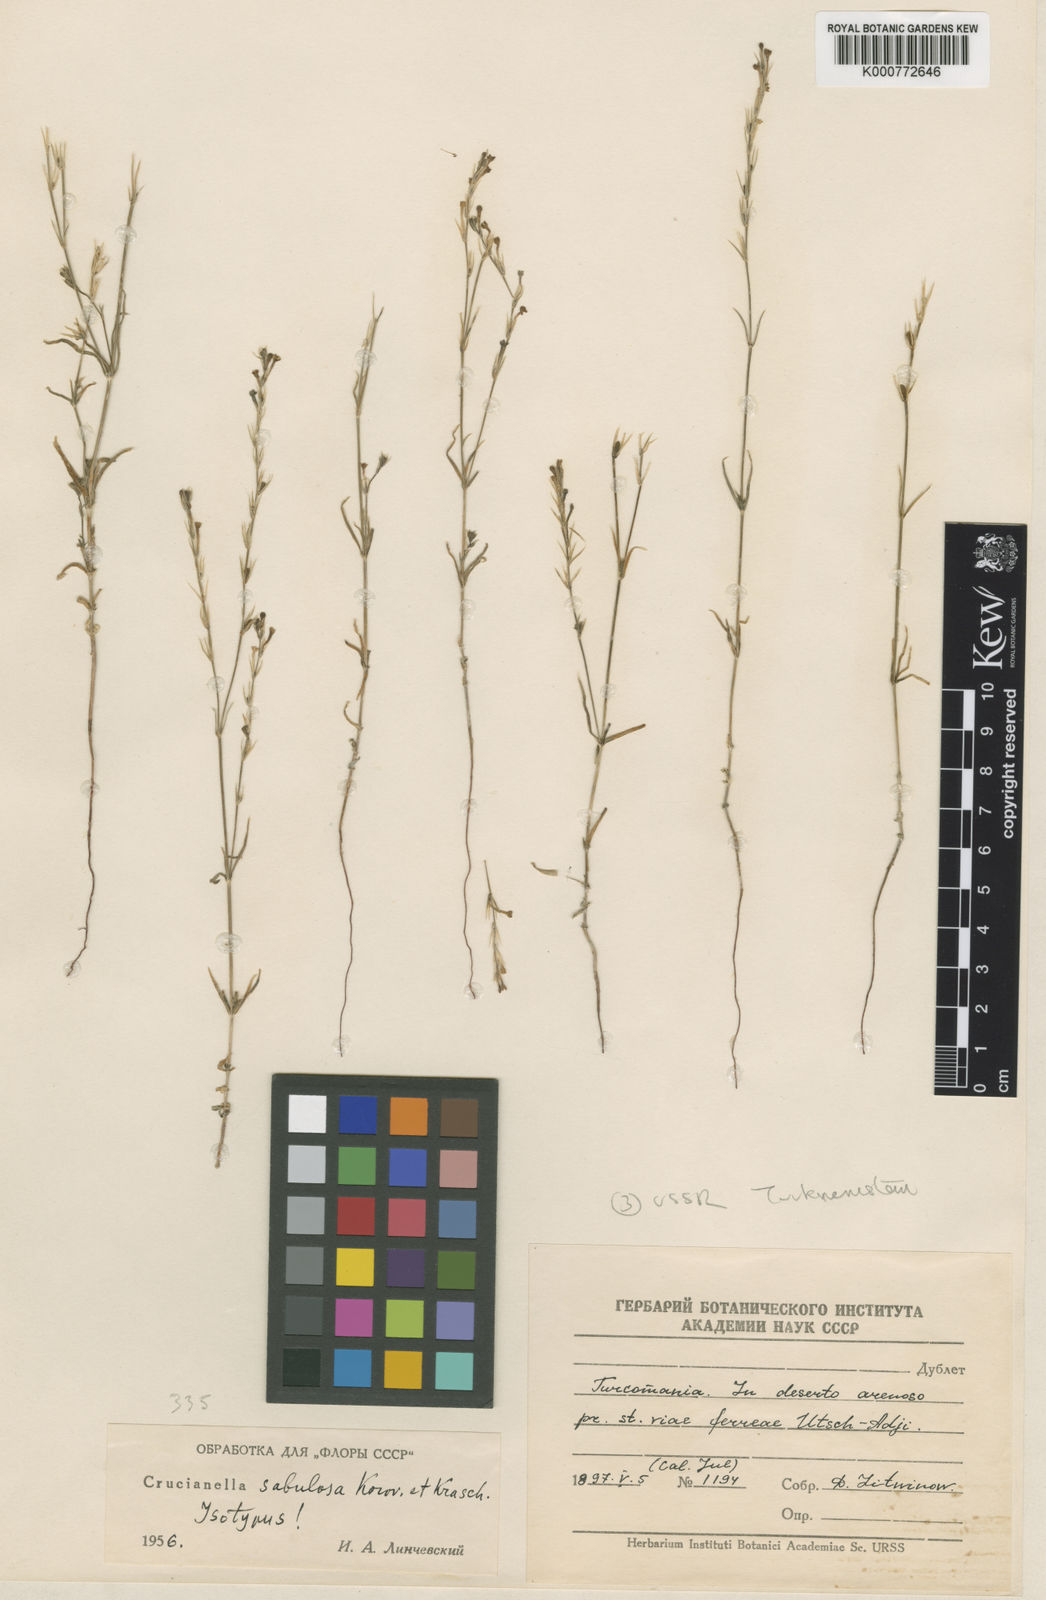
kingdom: Plantae
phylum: Tracheophyta
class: Magnoliopsida
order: Gentianales
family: Rubiaceae
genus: Crucianella
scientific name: Crucianella sabulosa
